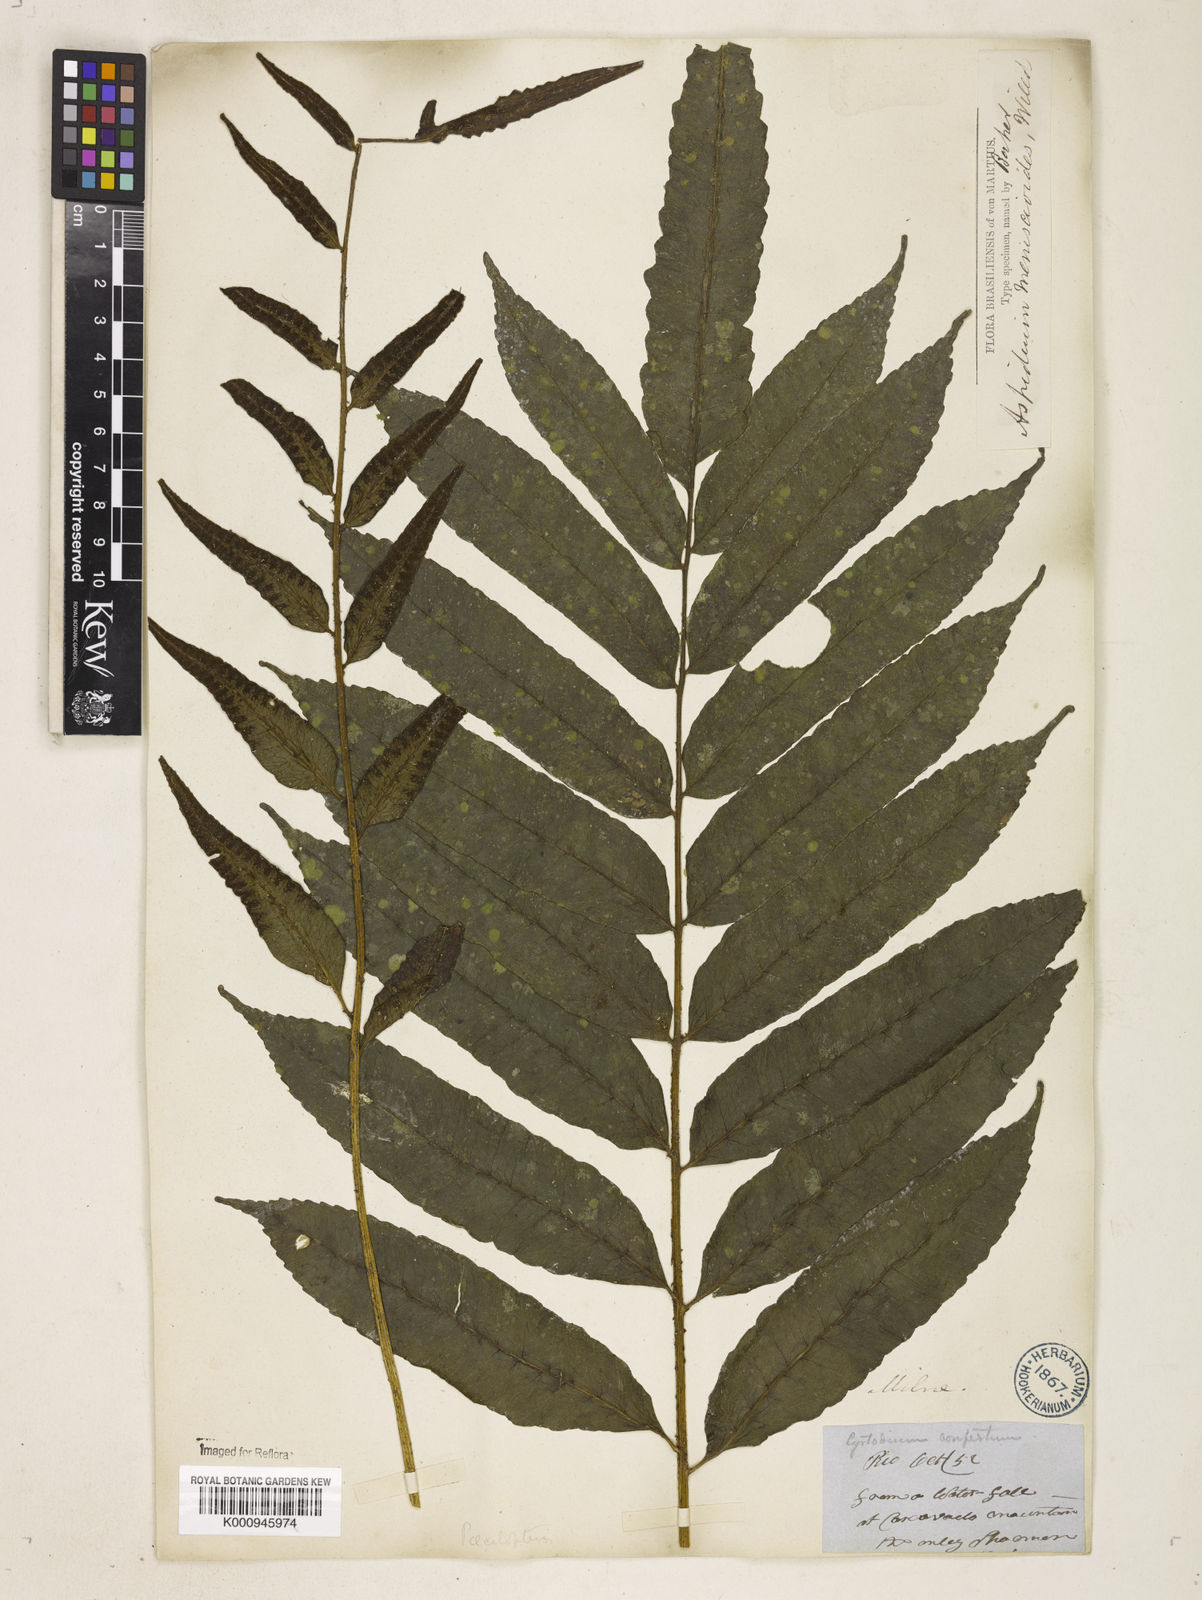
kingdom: Plantae
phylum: Tracheophyta
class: Polypodiopsida
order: Polypodiales
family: Dryopteridaceae
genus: Cyclodium
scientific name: Cyclodium meniscioides
